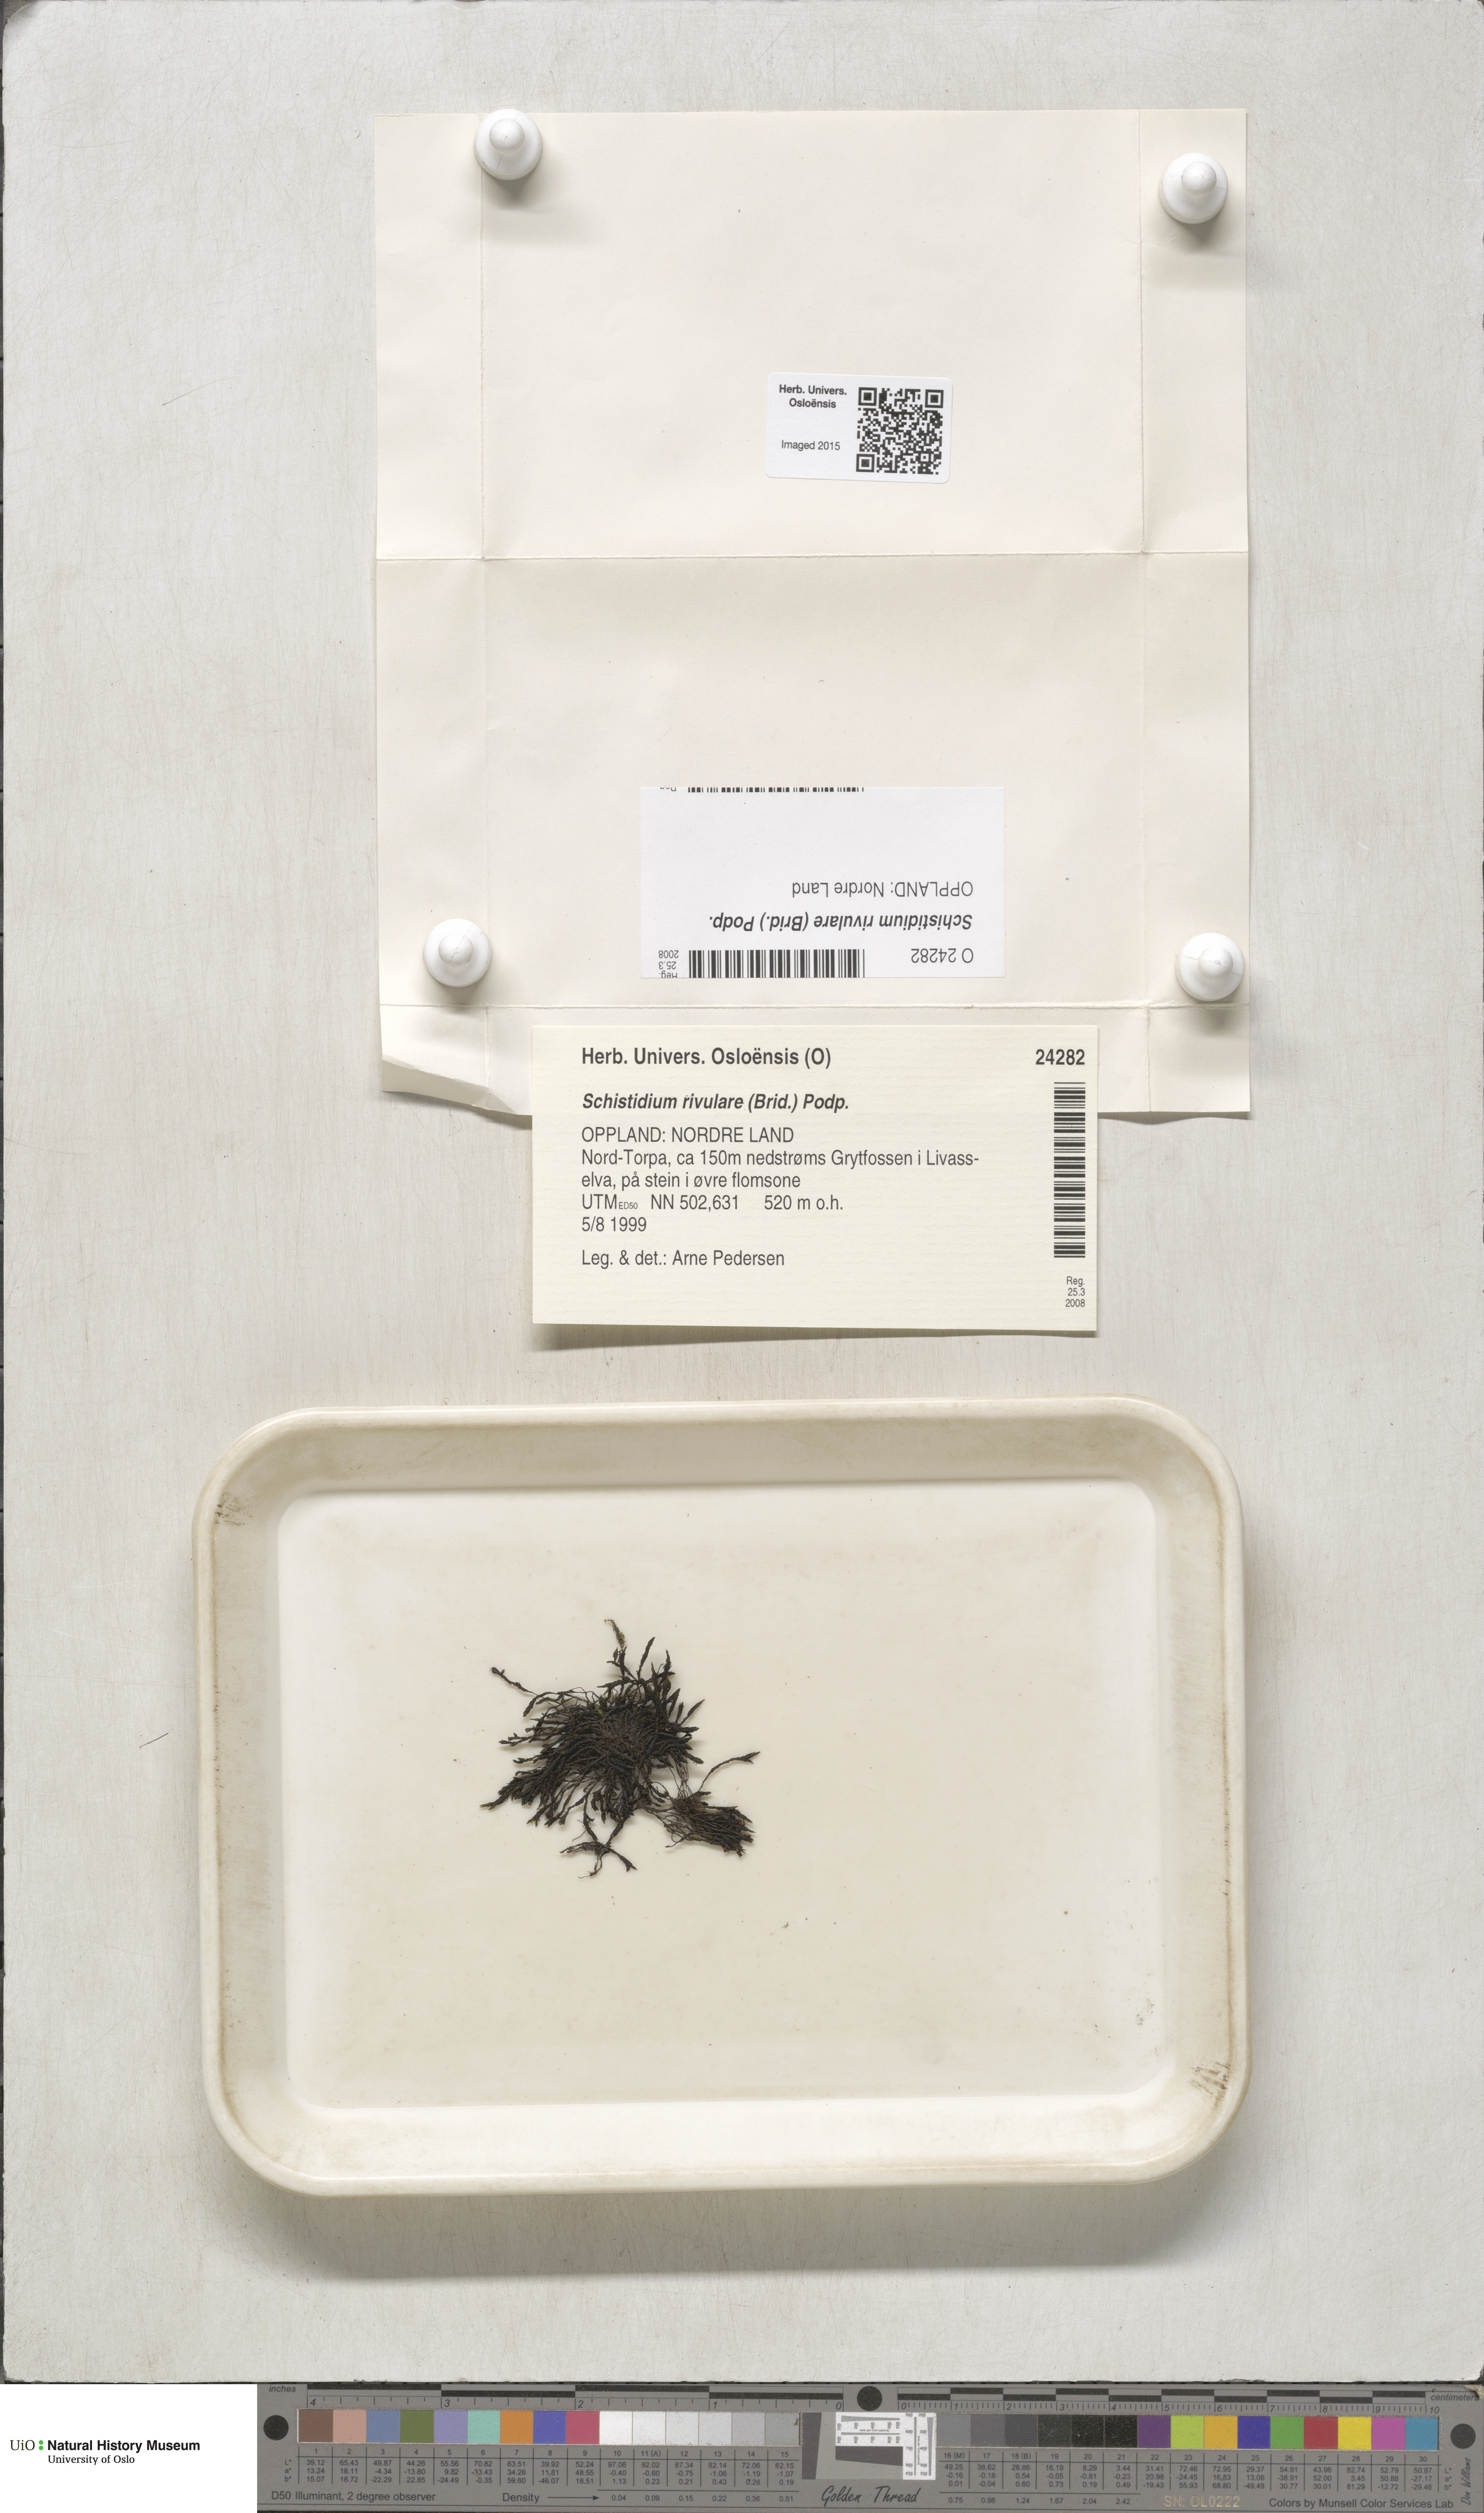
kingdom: Plantae
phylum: Bryophyta
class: Bryopsida
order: Grimmiales
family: Grimmiaceae
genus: Schistidium
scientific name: Schistidium rivulare
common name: River bloom moss
